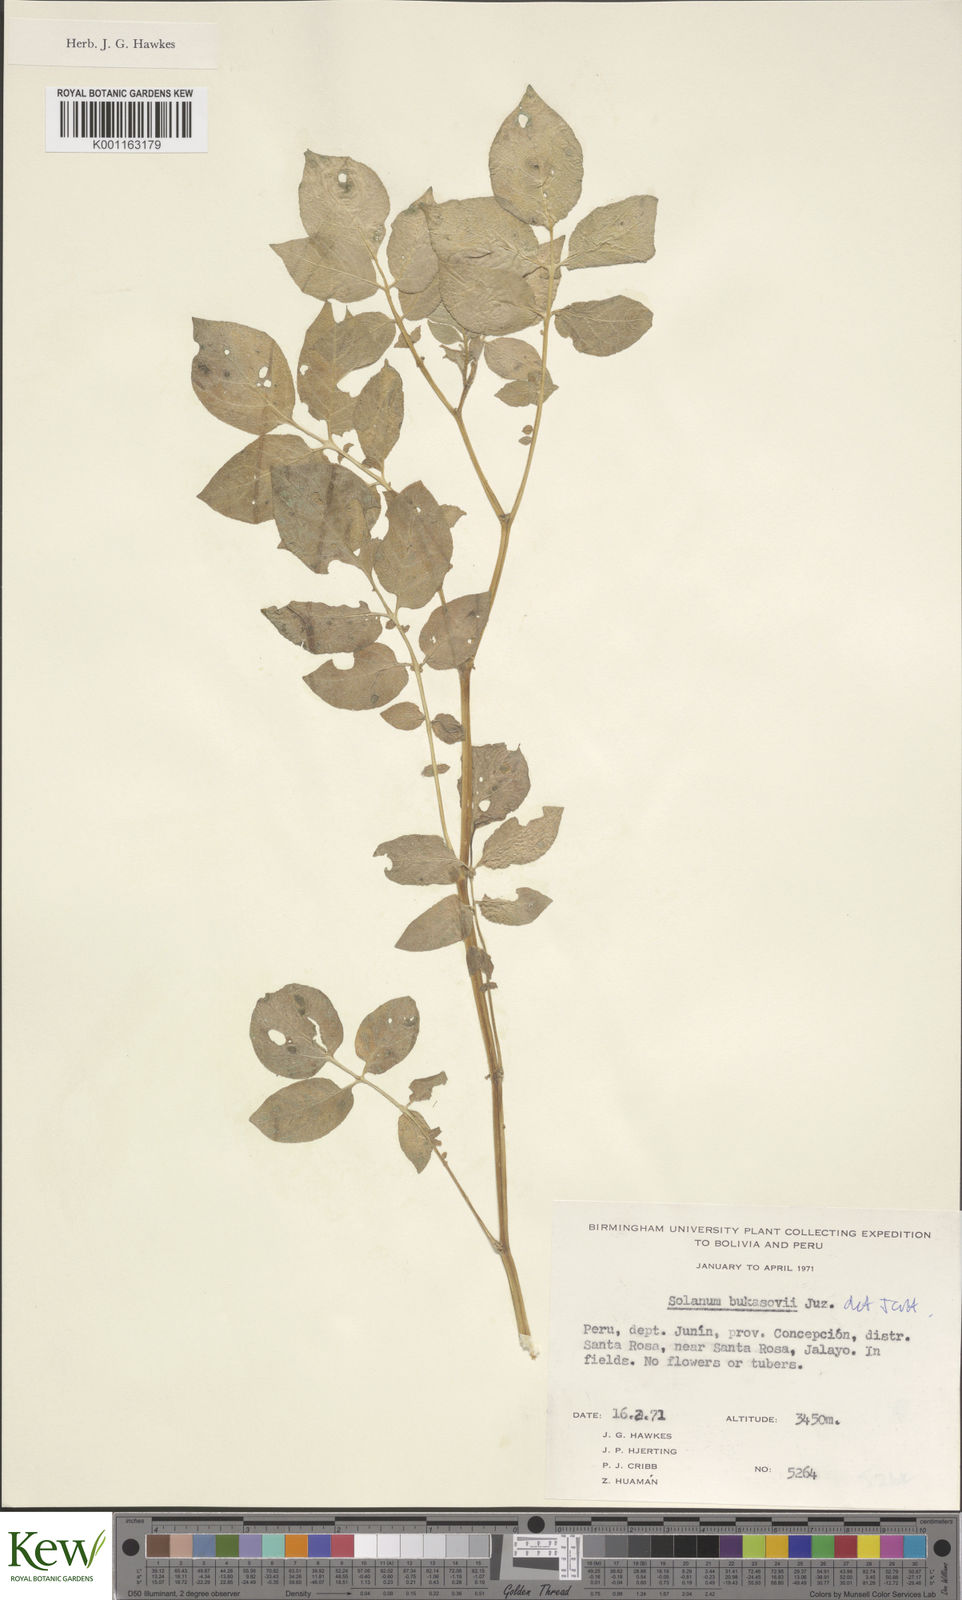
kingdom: Plantae
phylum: Tracheophyta
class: Magnoliopsida
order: Solanales
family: Solanaceae
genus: Solanum
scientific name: Solanum candolleanum
